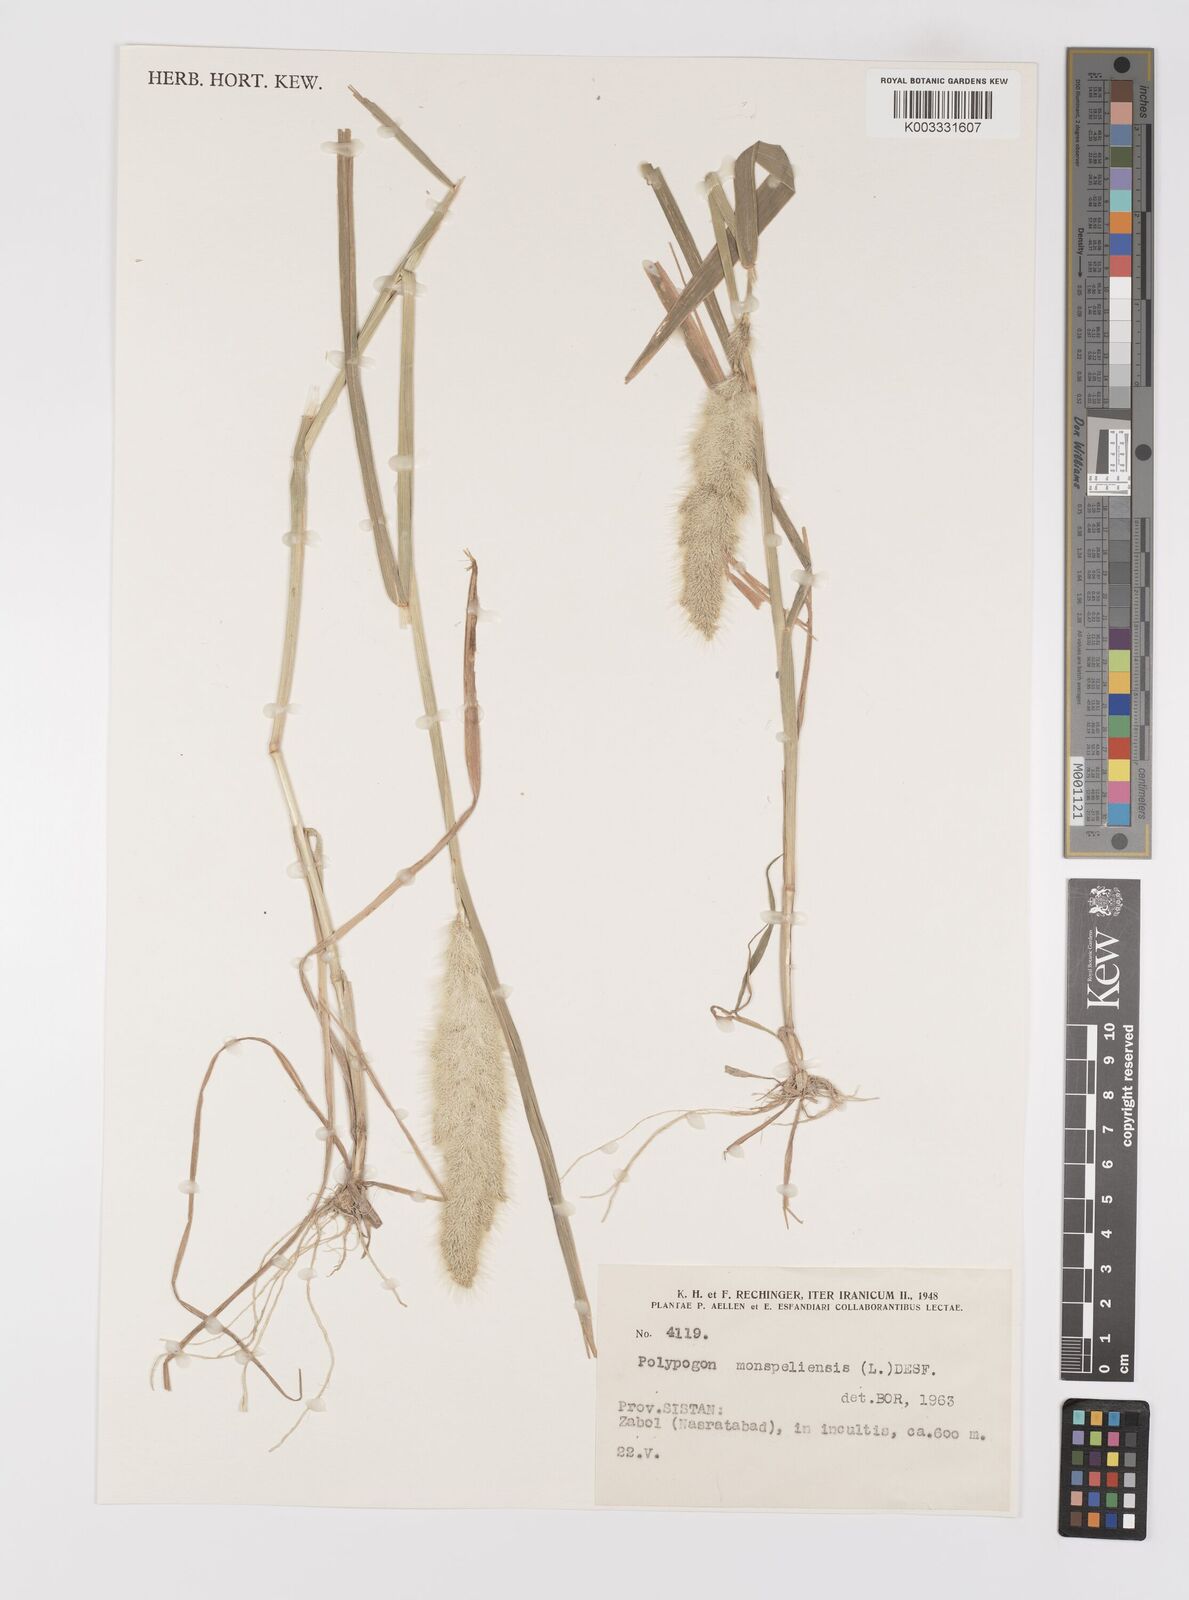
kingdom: Plantae
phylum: Tracheophyta
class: Liliopsida
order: Poales
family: Poaceae
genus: Polypogon
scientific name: Polypogon monspeliensis
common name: Annual rabbitsfoot grass
